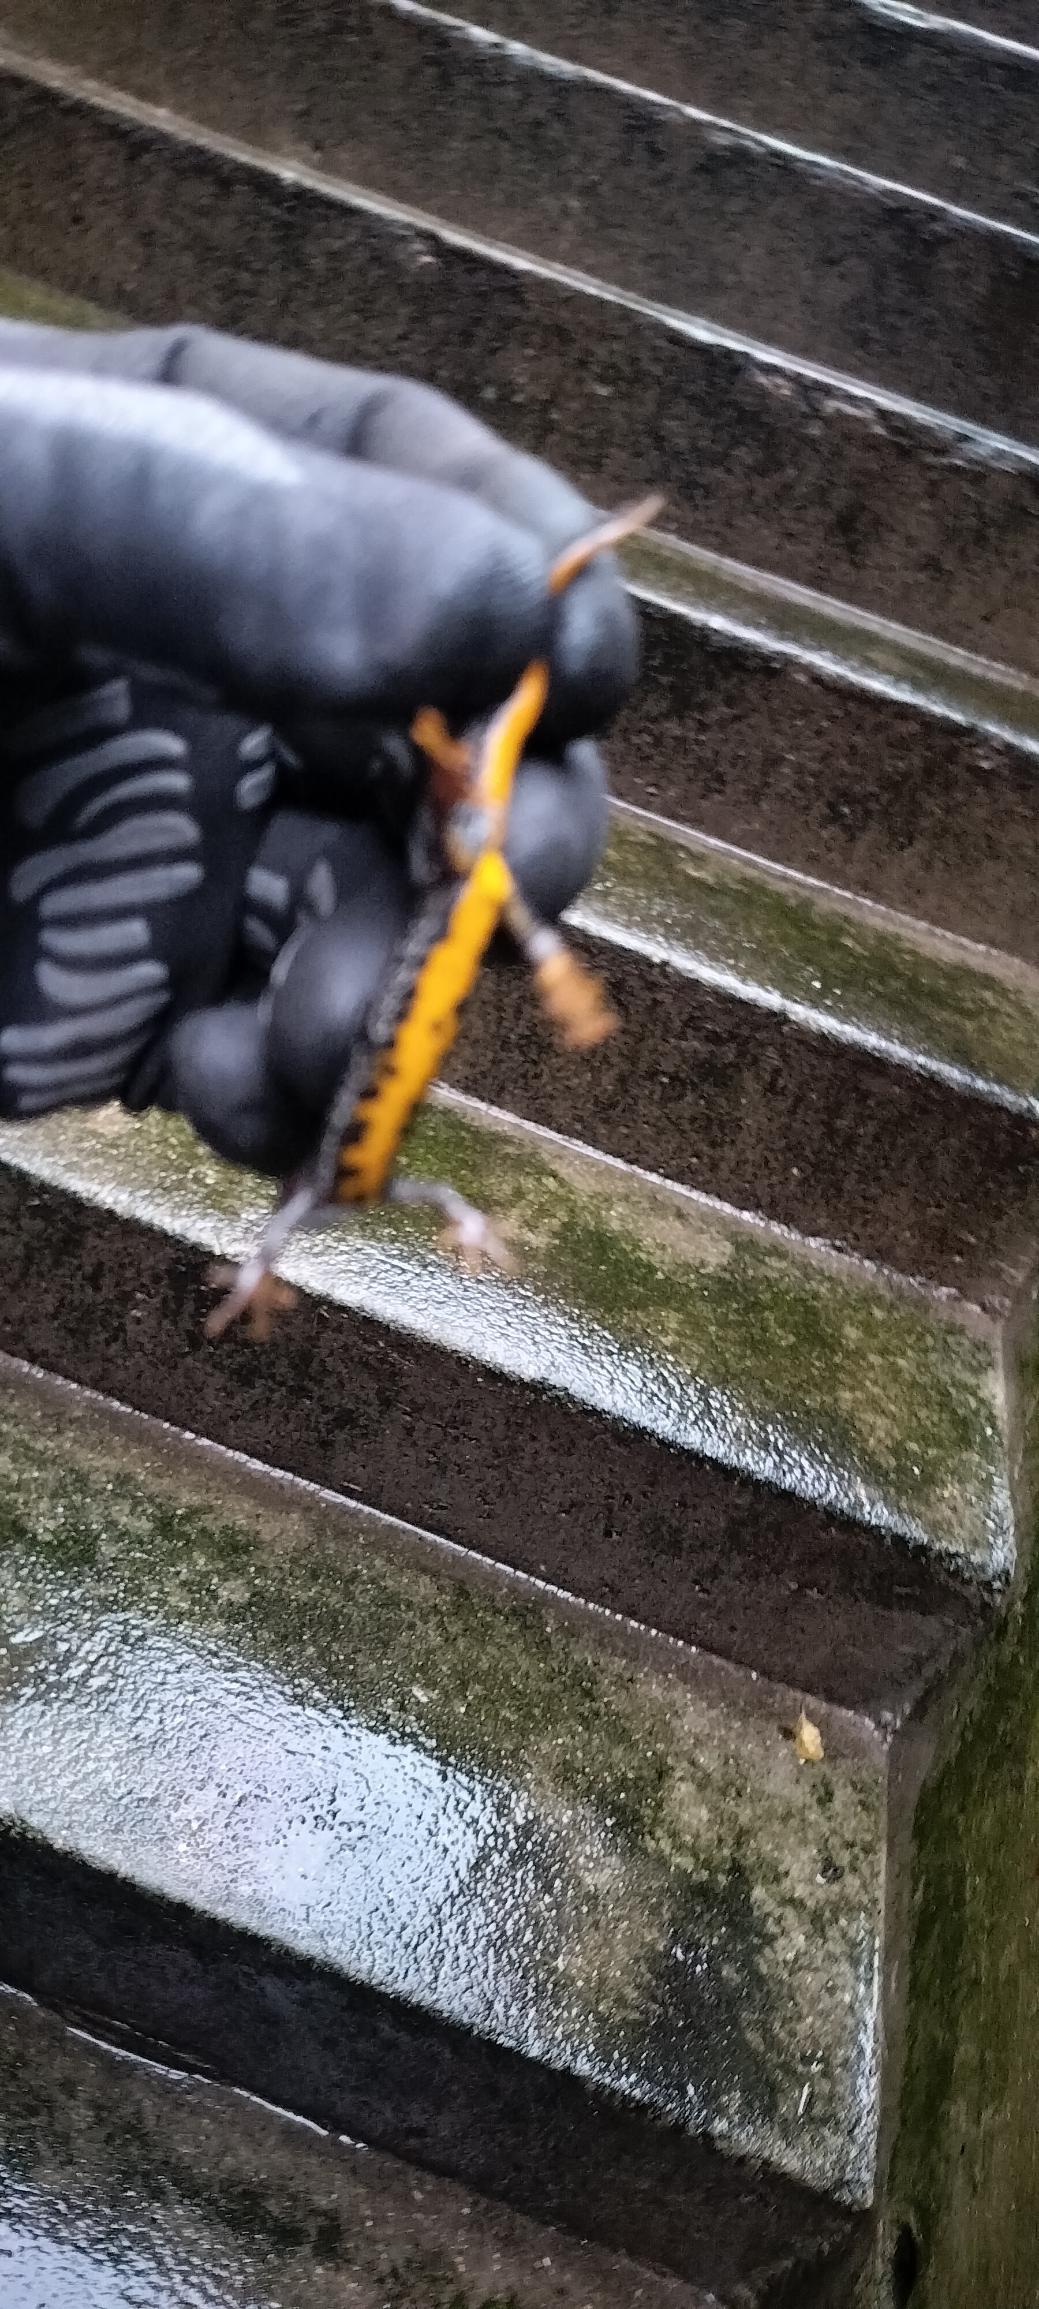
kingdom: Animalia
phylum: Chordata
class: Amphibia
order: Caudata
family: Salamandridae
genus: Triturus
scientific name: Triturus cristatus
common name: Stor vandsalamander
